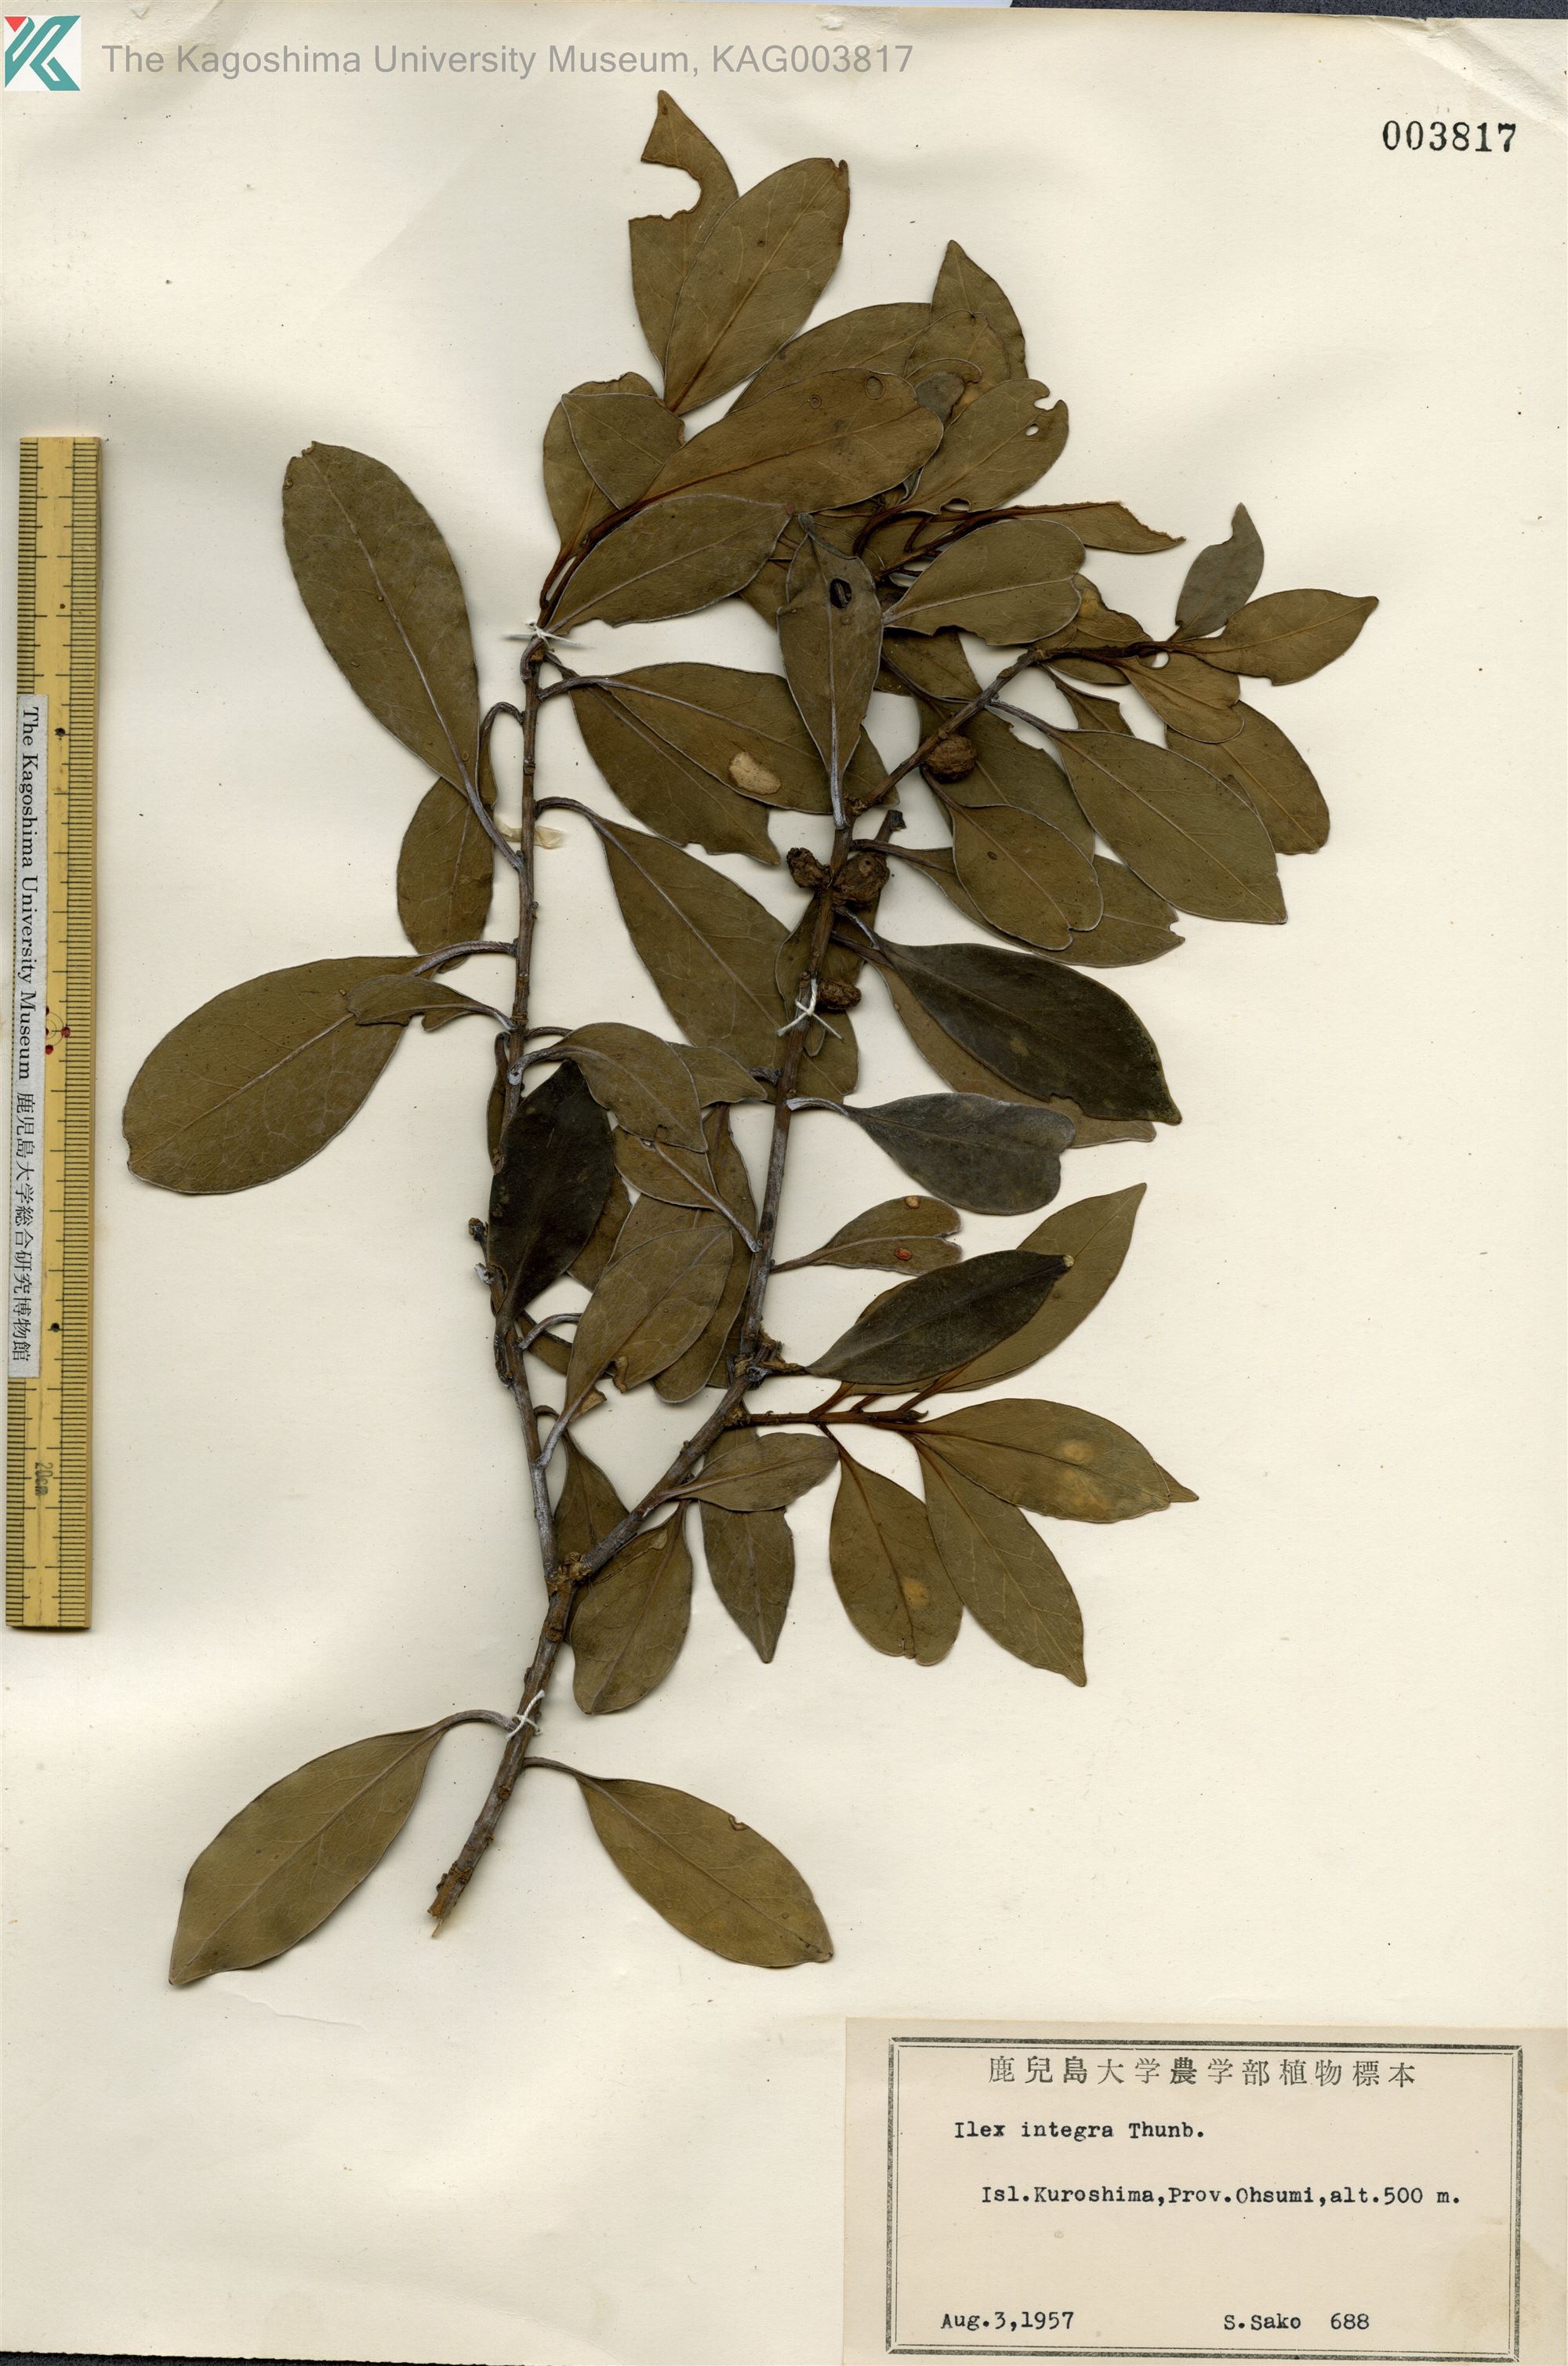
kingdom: Plantae
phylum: Tracheophyta
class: Magnoliopsida
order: Aquifoliales
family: Aquifoliaceae
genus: Ilex
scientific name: Ilex integra
